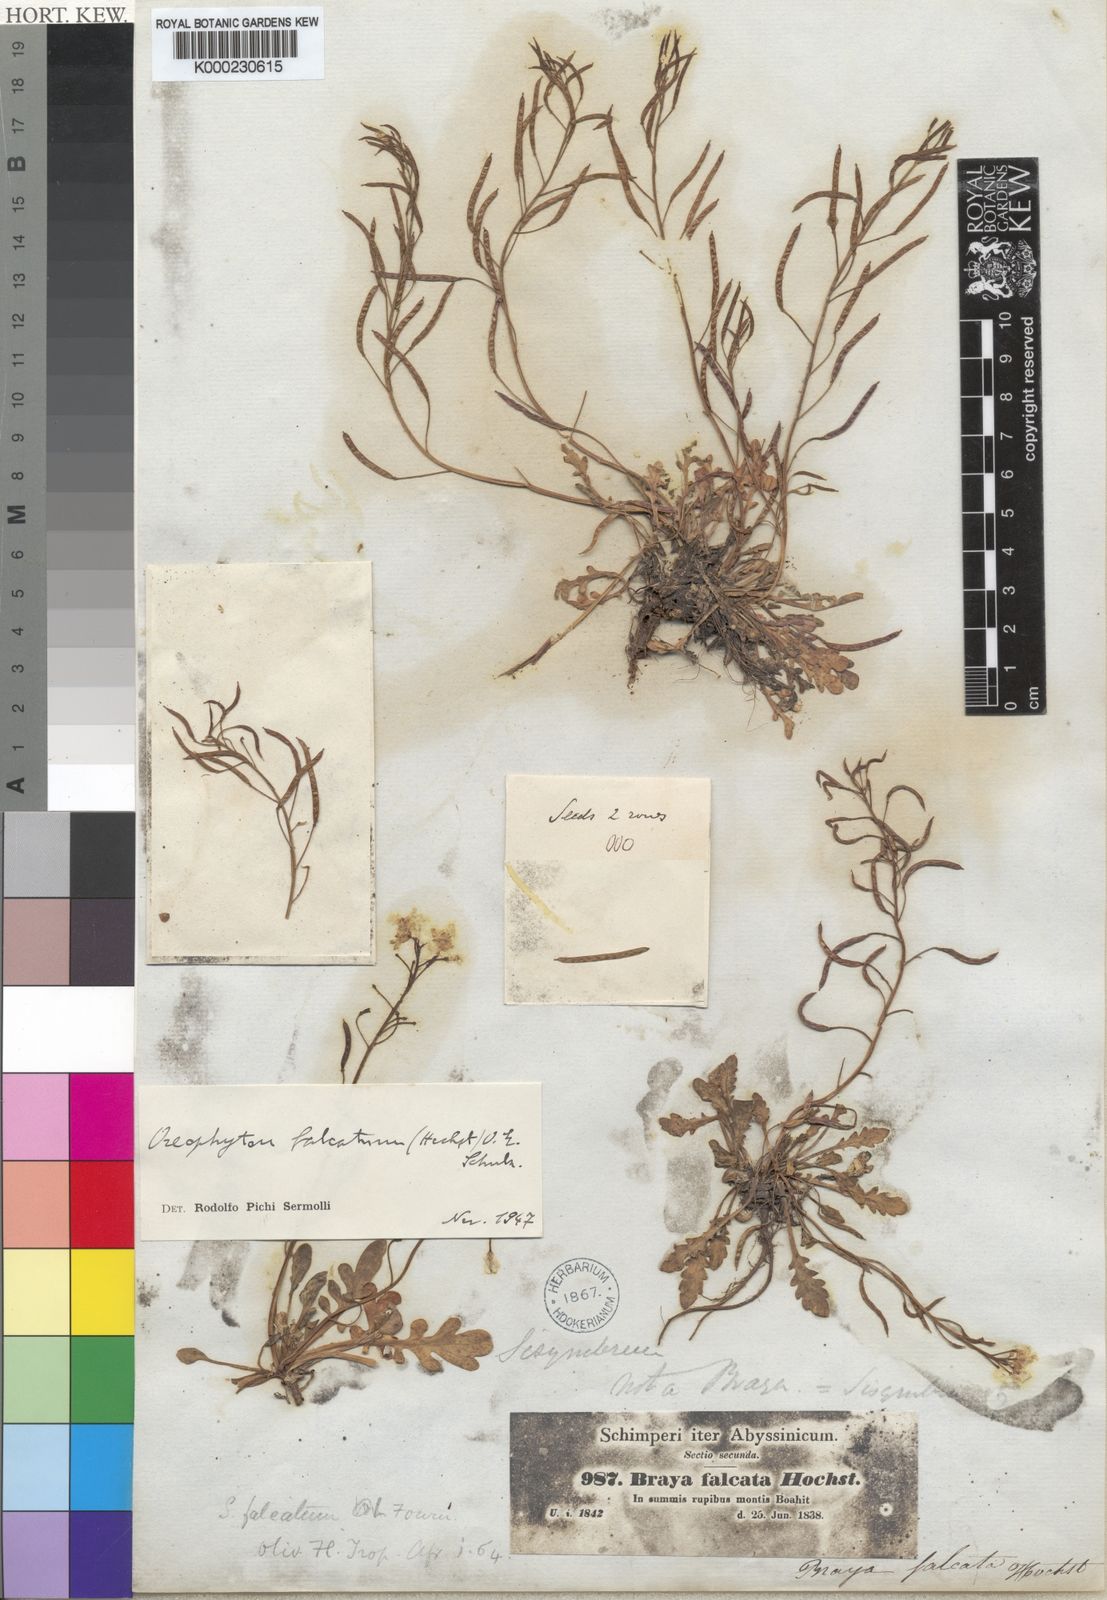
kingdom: Plantae
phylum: Tracheophyta
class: Magnoliopsida
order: Brassicales
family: Brassicaceae
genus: Oreophyton
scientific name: Oreophyton falcatum
